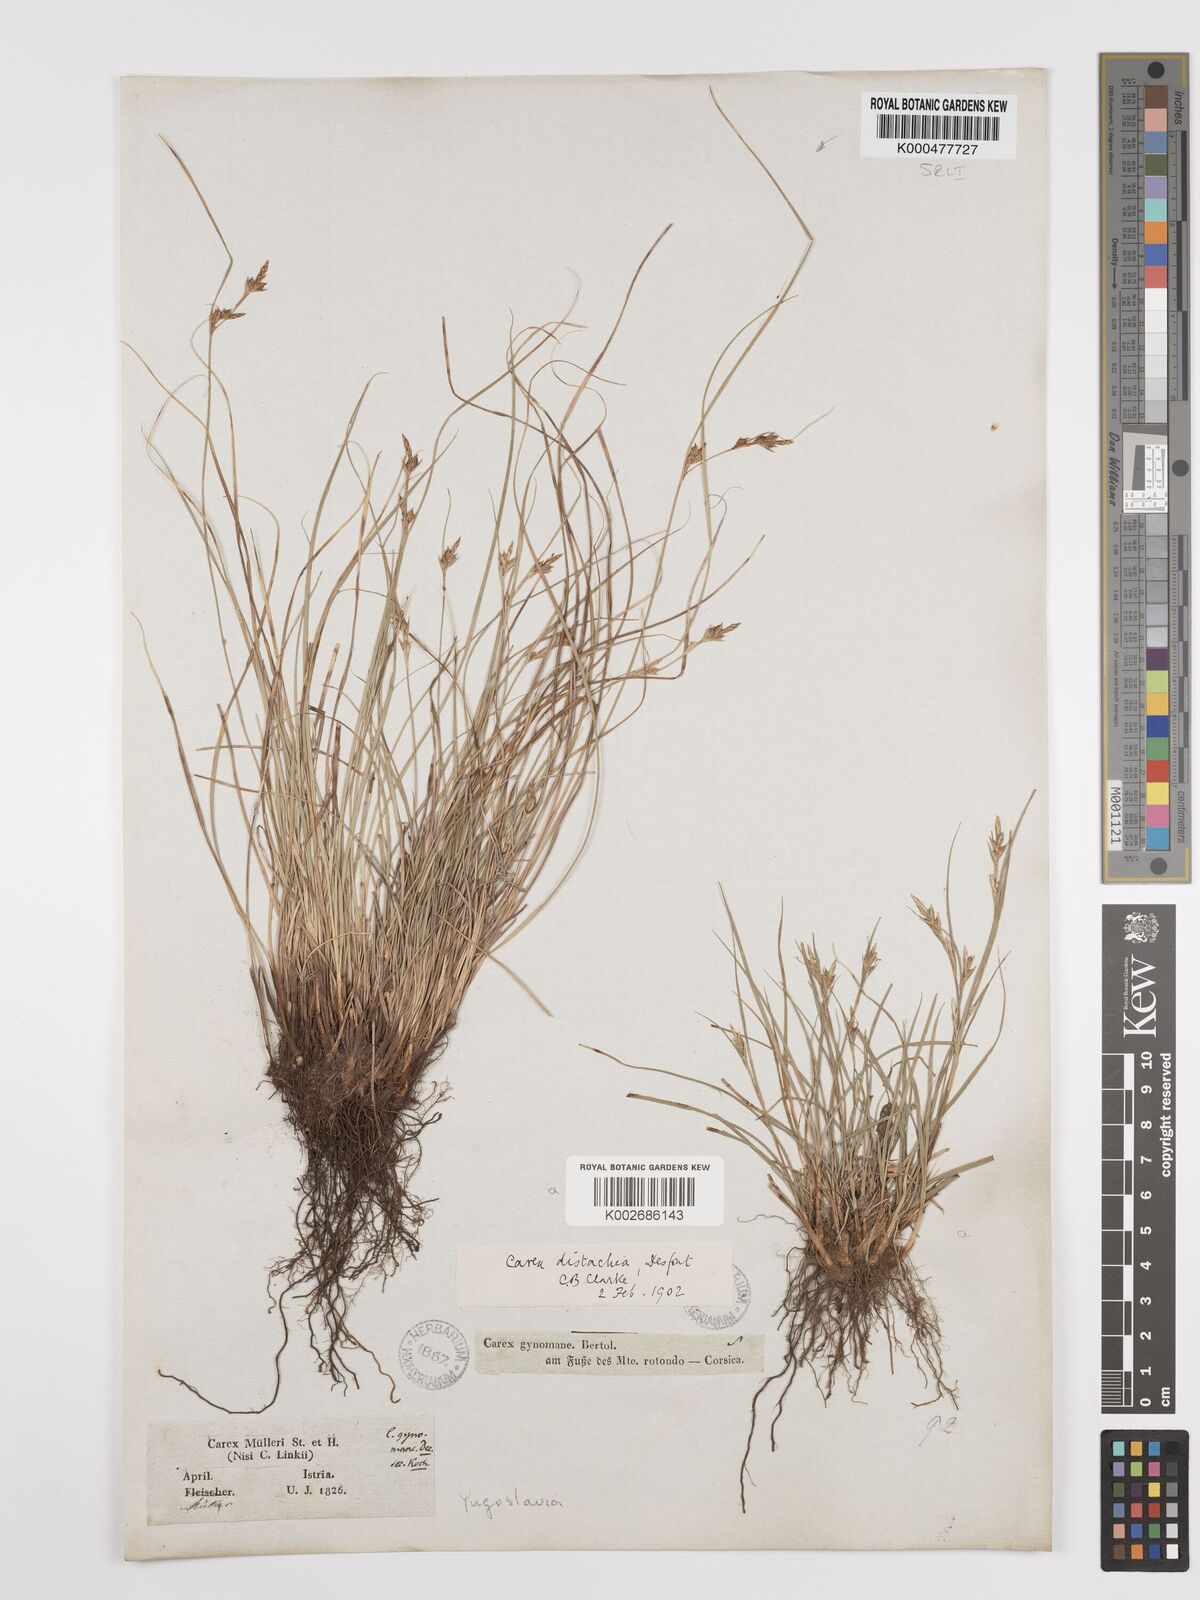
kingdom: Plantae
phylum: Tracheophyta
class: Liliopsida
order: Poales
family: Cyperaceae
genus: Carex
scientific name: Carex distachya
